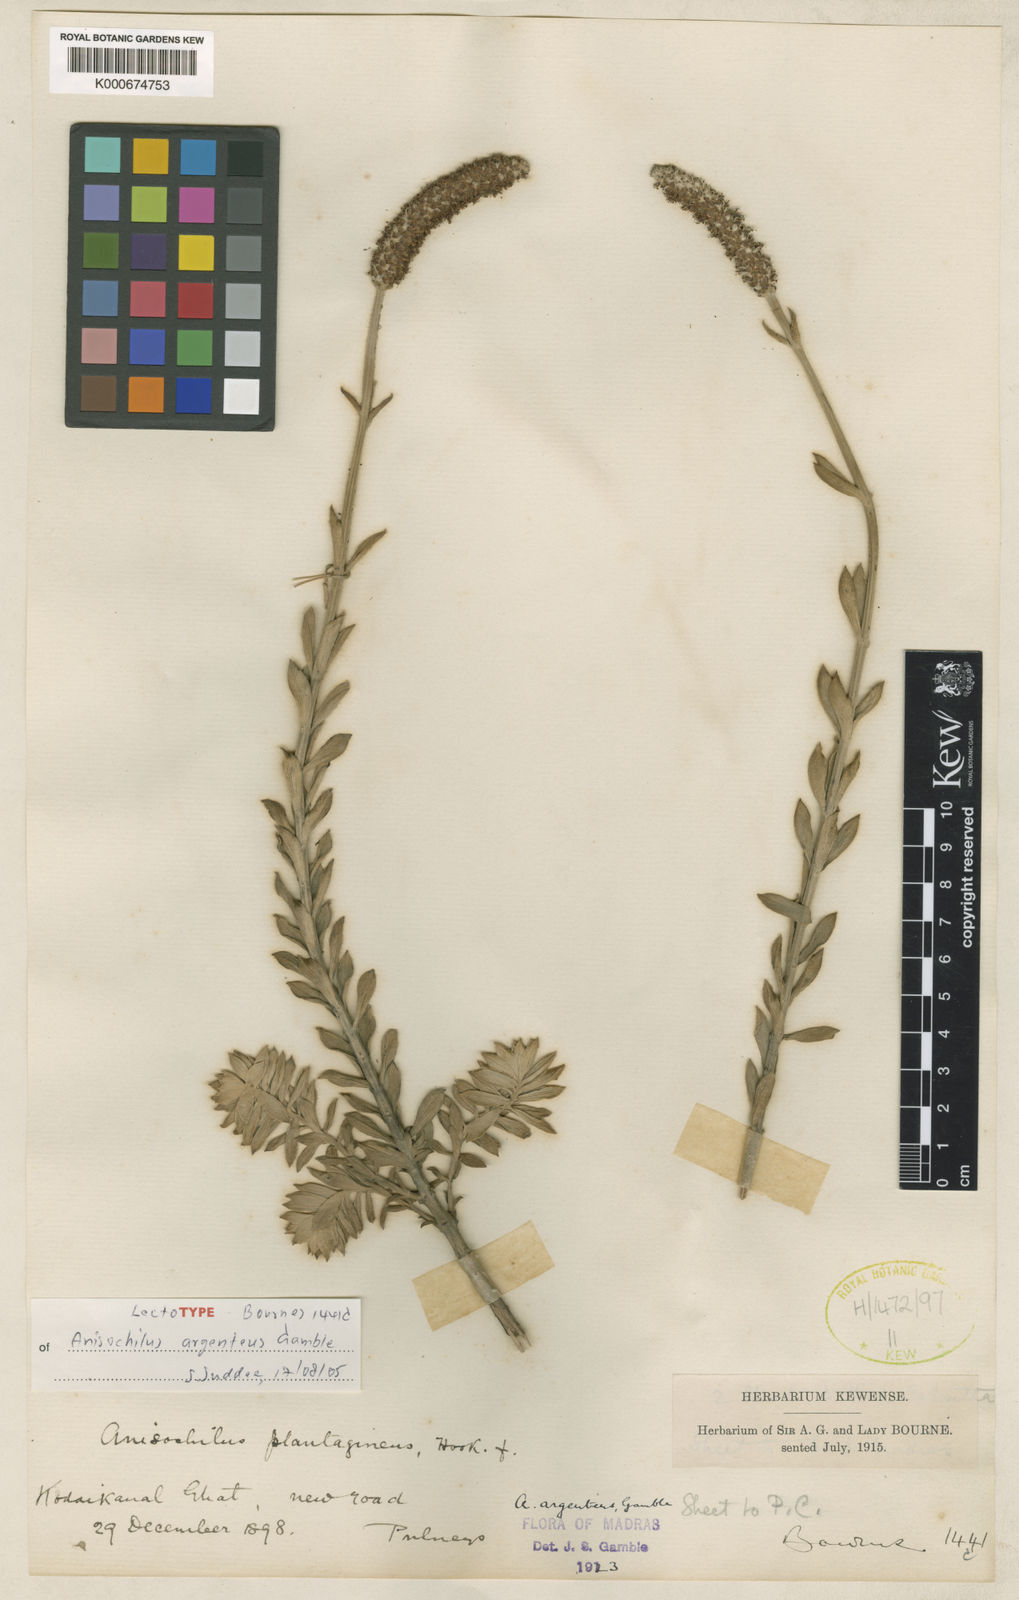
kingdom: Plantae
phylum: Tracheophyta
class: Magnoliopsida
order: Lamiales
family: Lamiaceae
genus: Coleus
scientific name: Coleus argenteus
